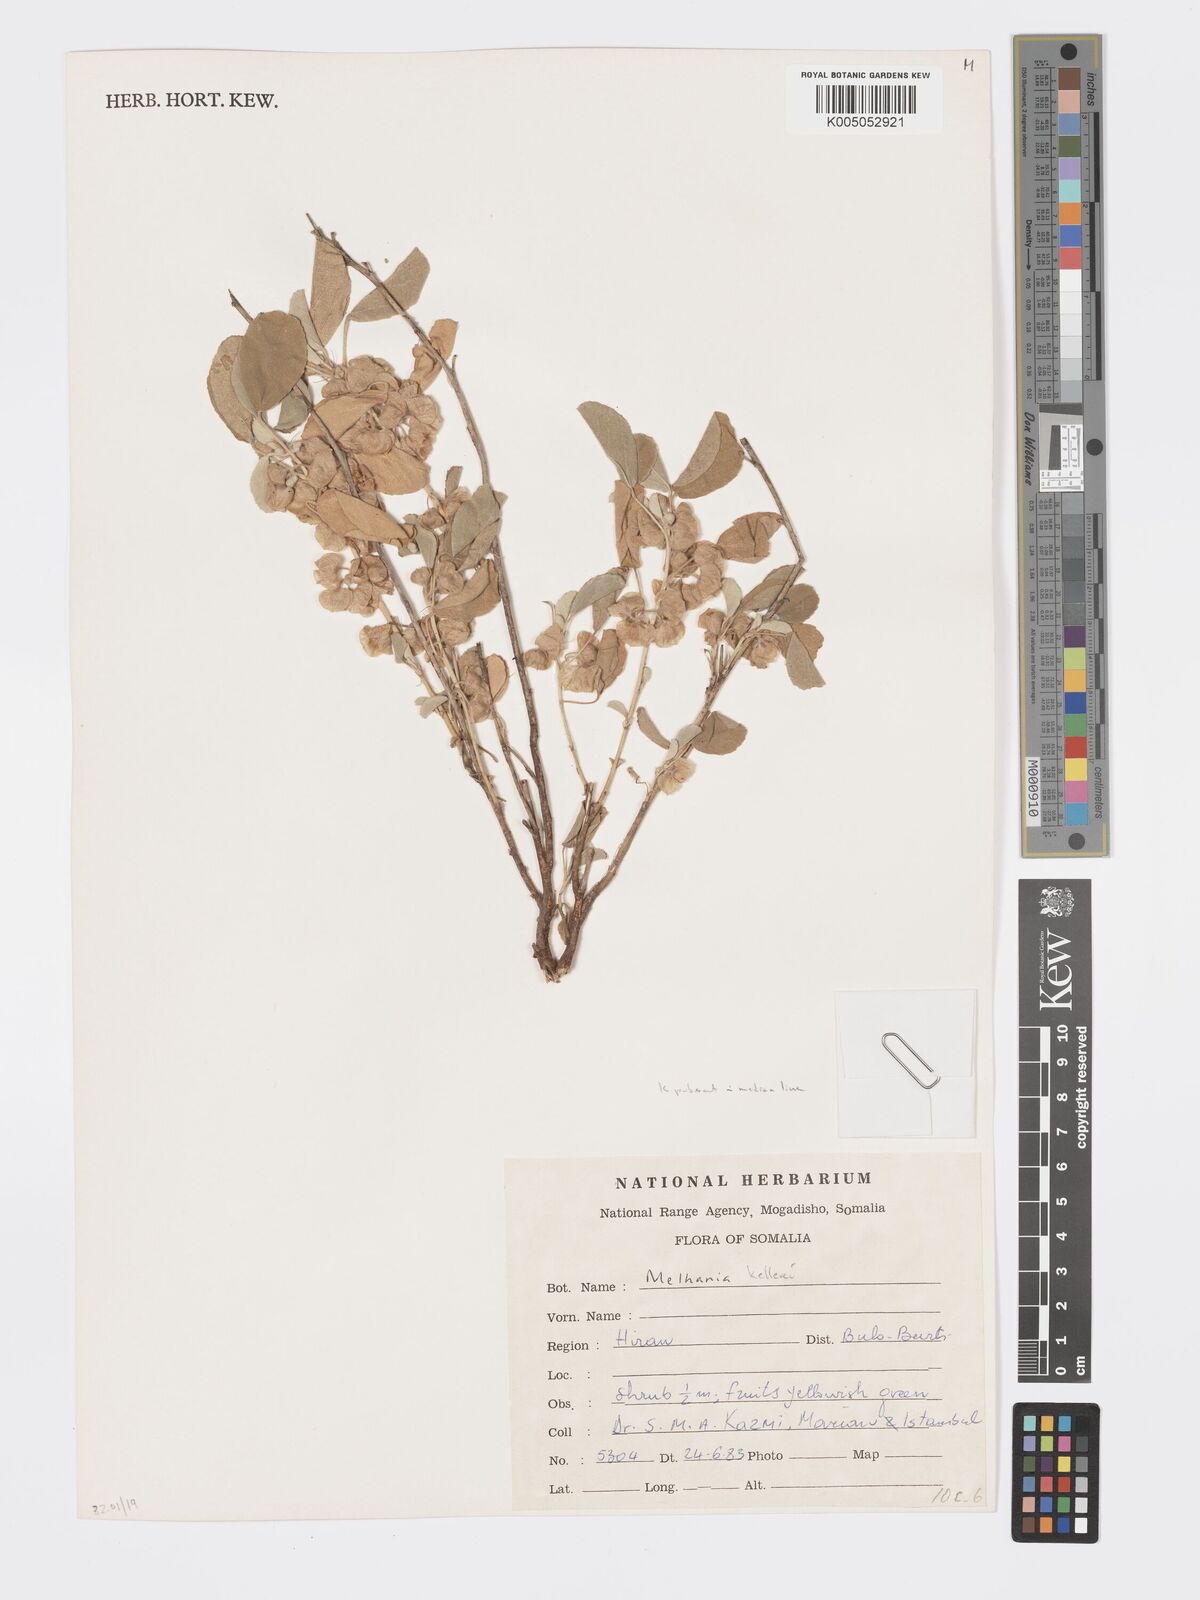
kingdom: Plantae
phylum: Tracheophyta
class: Magnoliopsida
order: Malvales
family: Malvaceae
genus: Melhania
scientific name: Melhania kelleri
